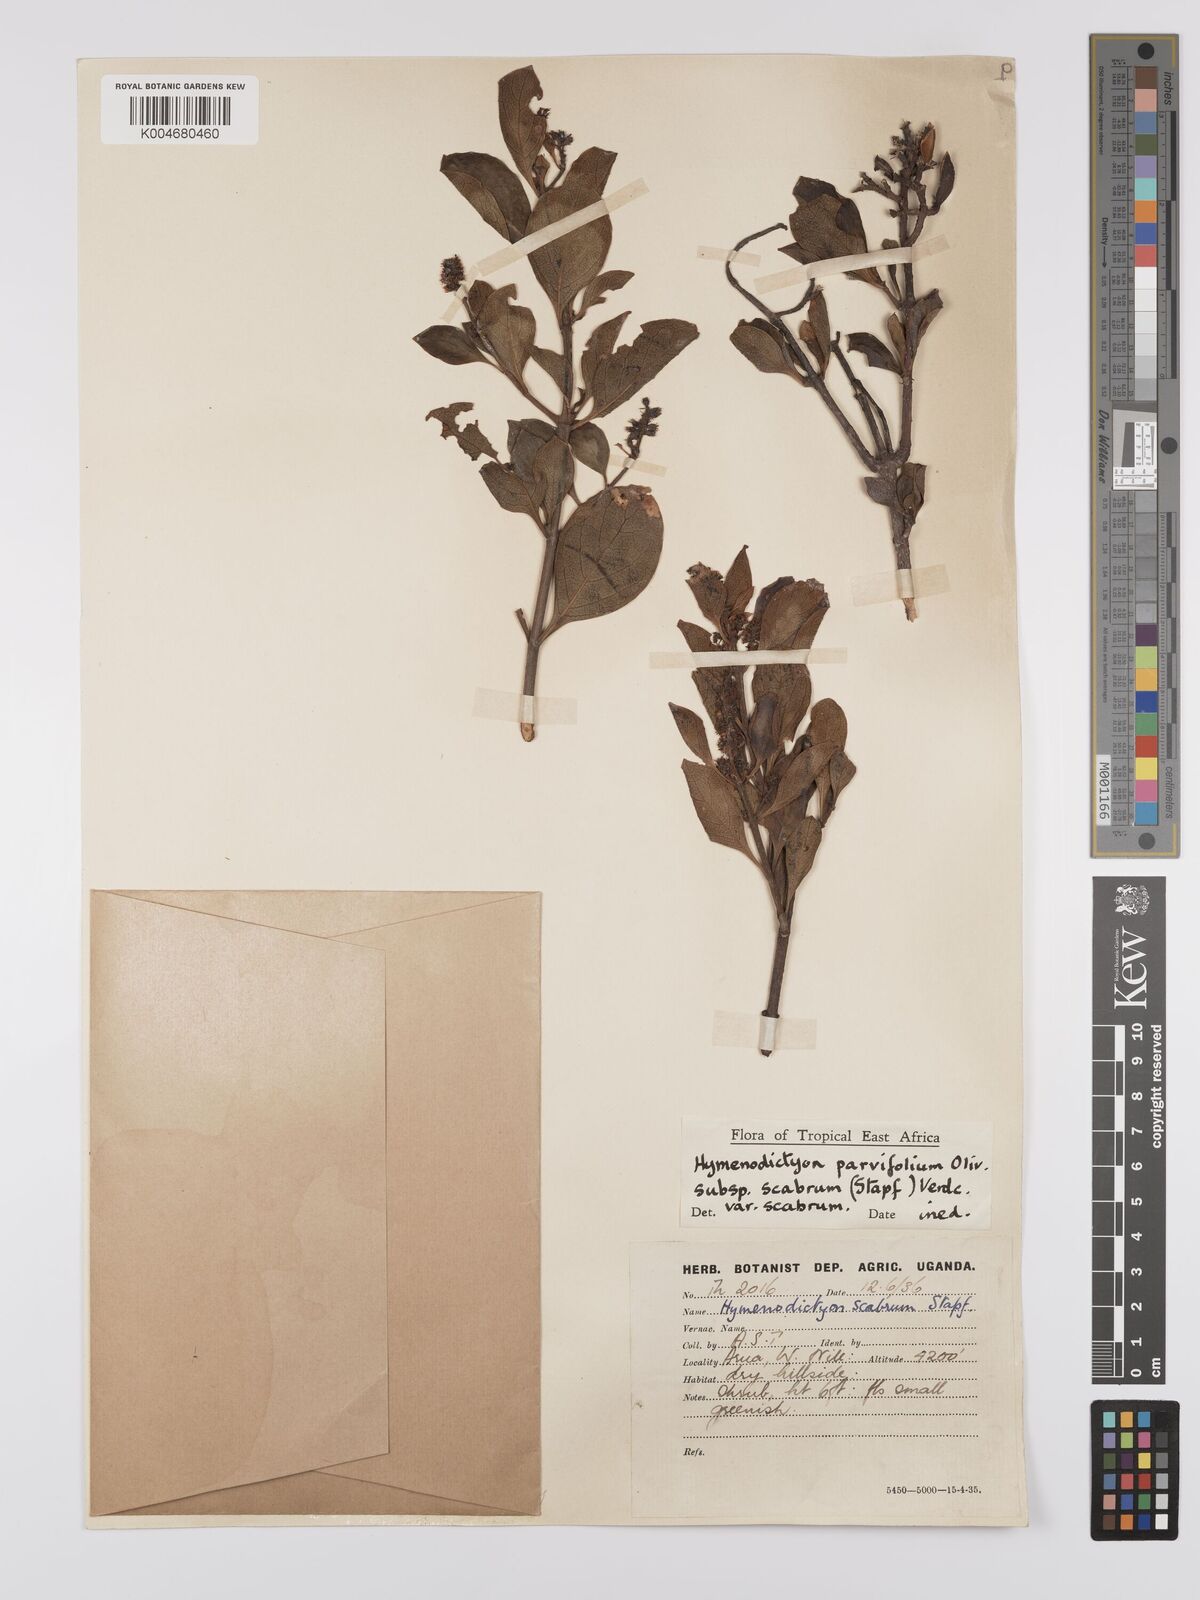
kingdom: Plantae
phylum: Tracheophyta
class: Magnoliopsida
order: Gentianales
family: Rubiaceae
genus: Hymenodictyon
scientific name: Hymenodictyon scabrum
